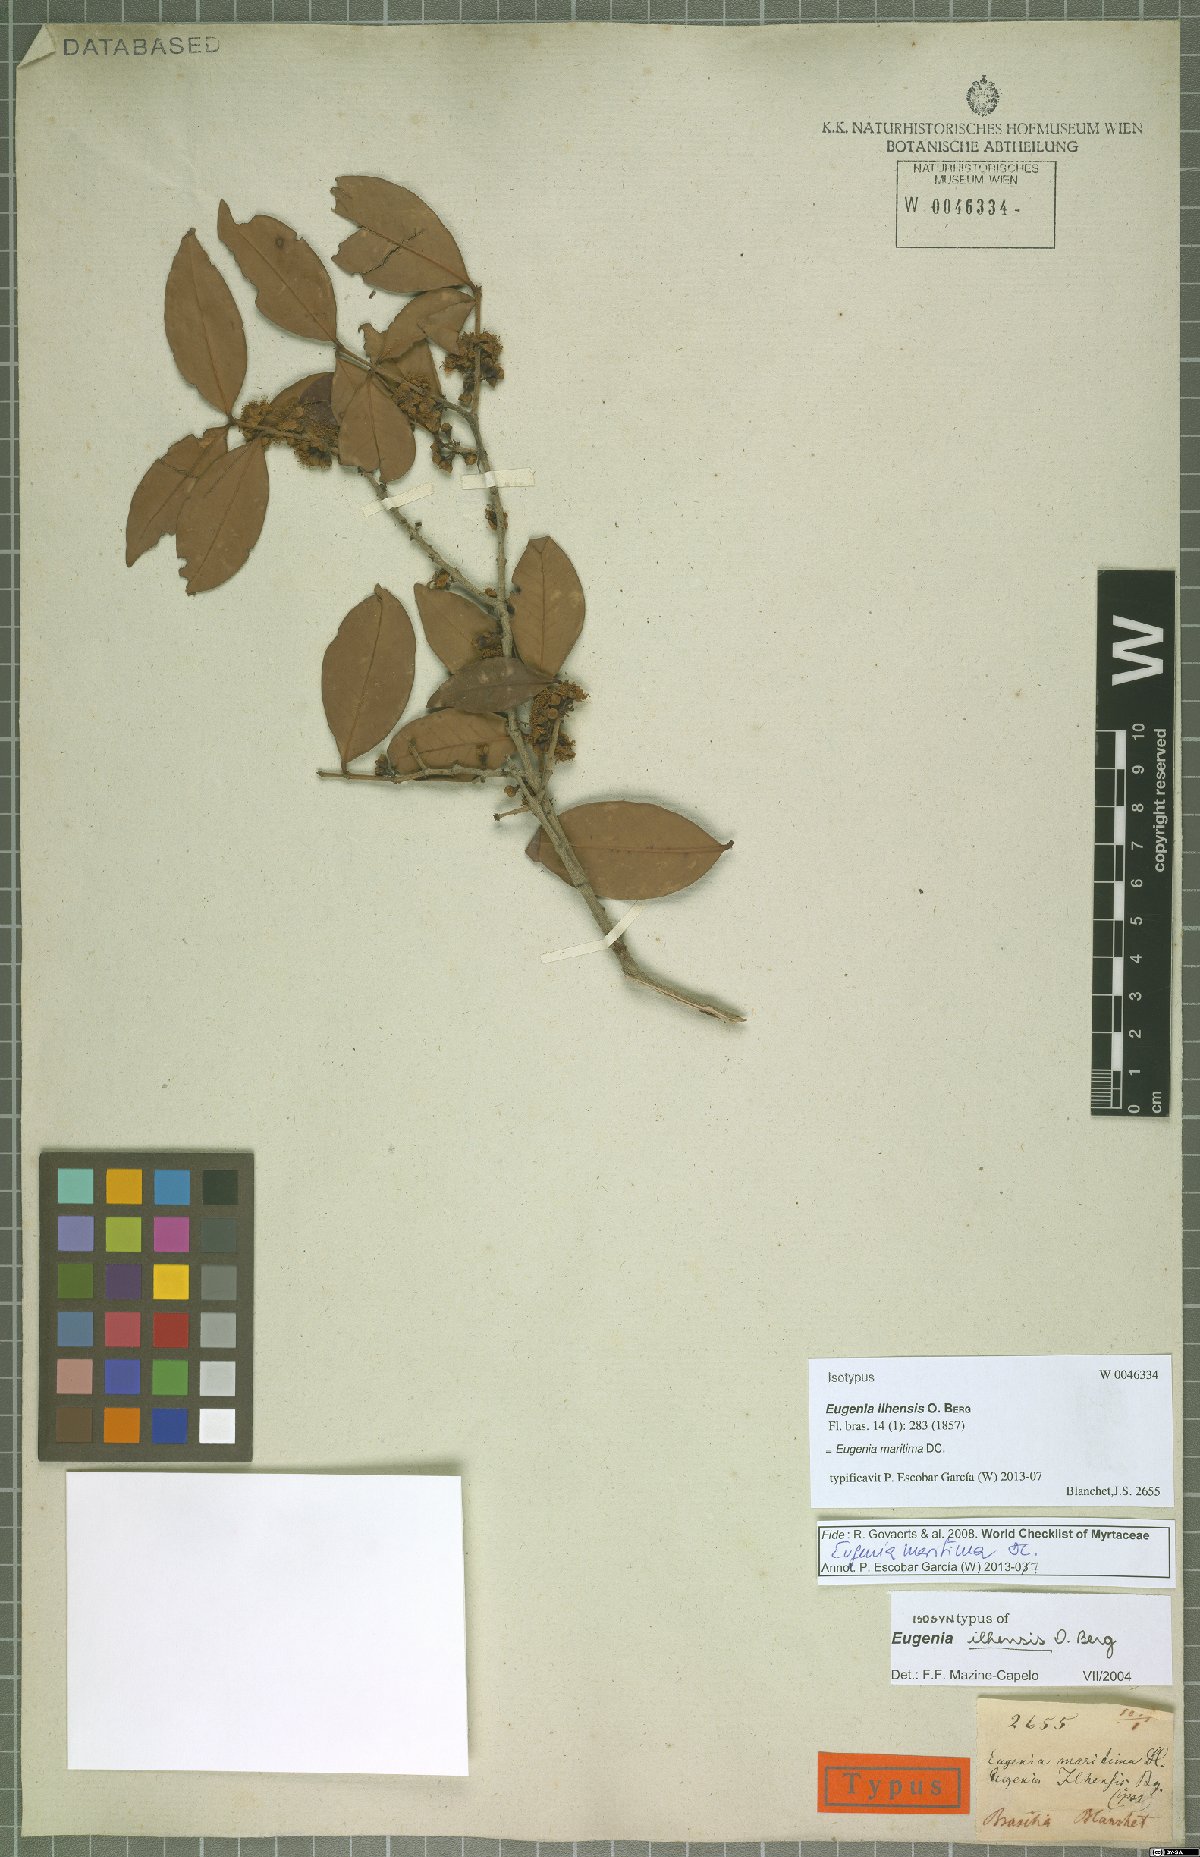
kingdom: Plantae
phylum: Tracheophyta
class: Magnoliopsida
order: Myrtales
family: Myrtaceae
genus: Eugenia
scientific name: Eugenia maritima
